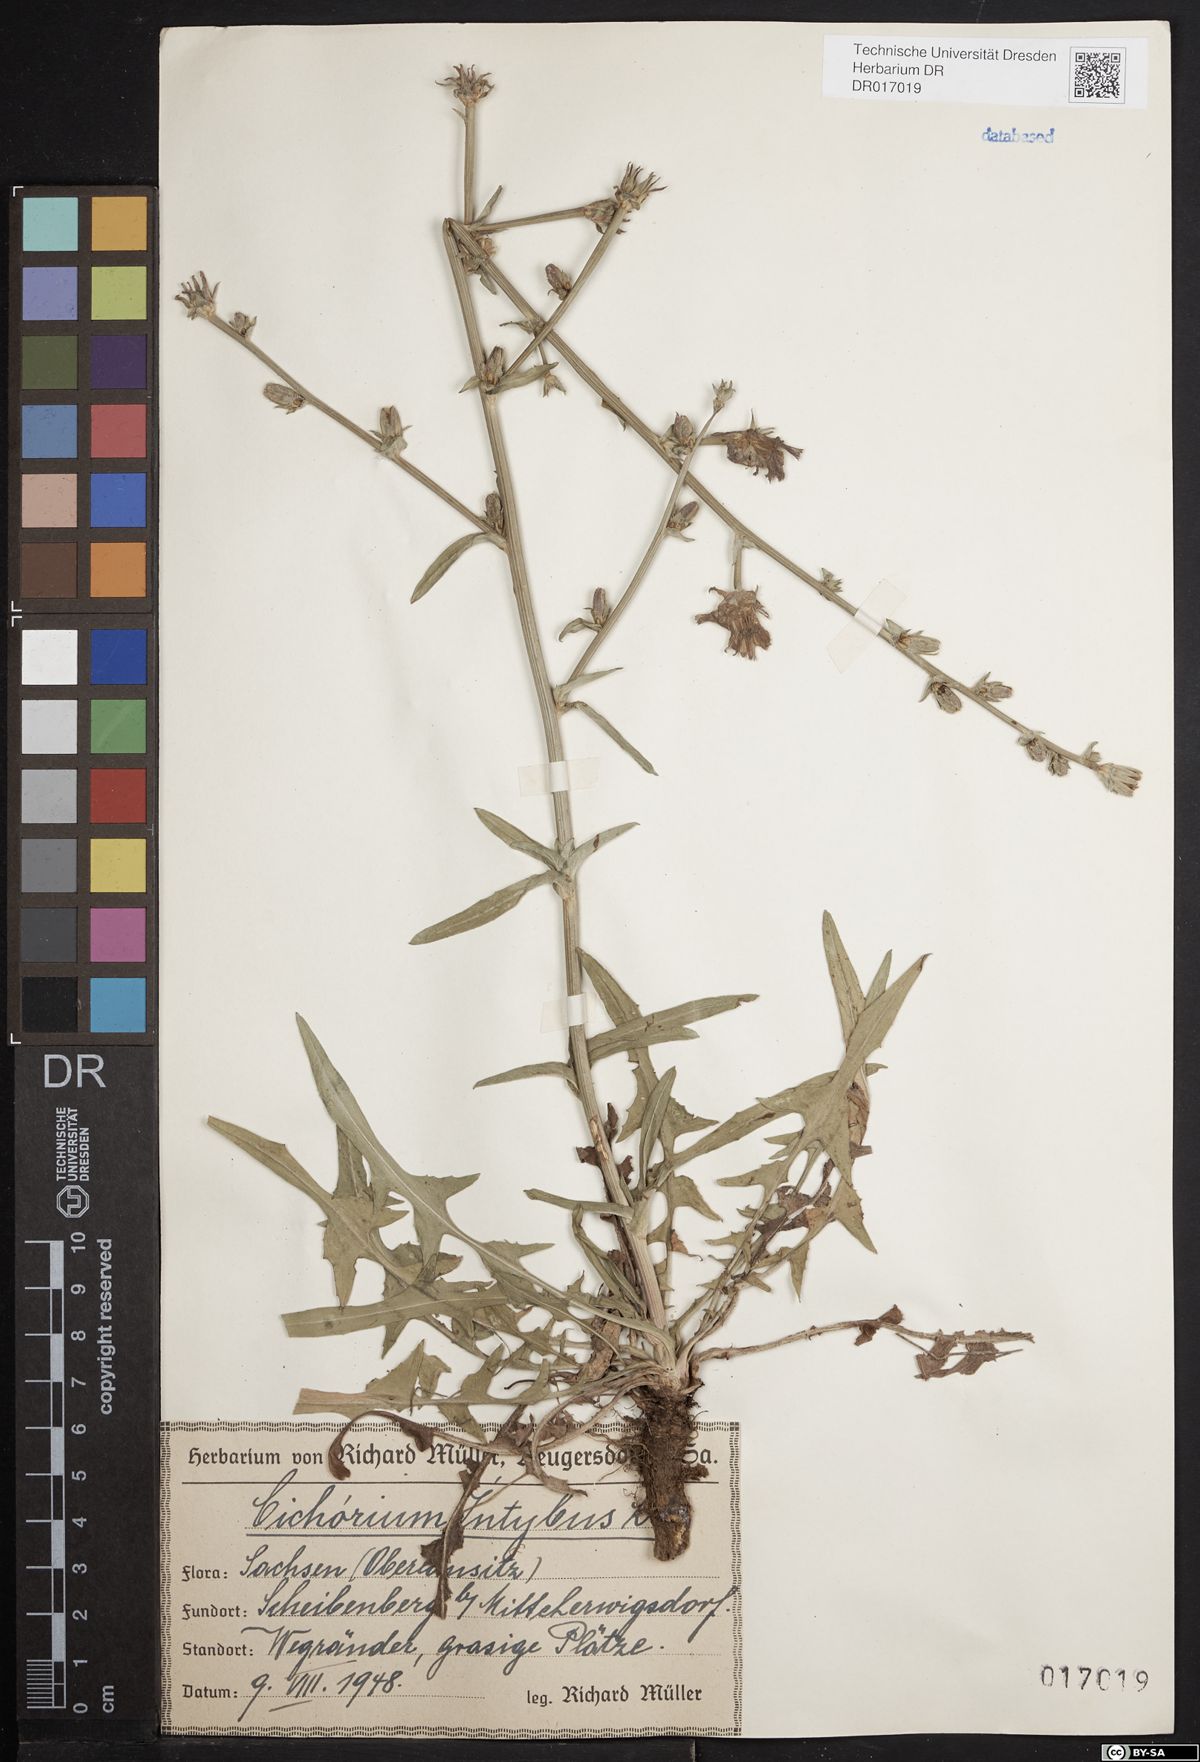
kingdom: Plantae
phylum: Tracheophyta
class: Magnoliopsida
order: Asterales
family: Asteraceae
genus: Cichorium
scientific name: Cichorium intybus
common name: Chicory
